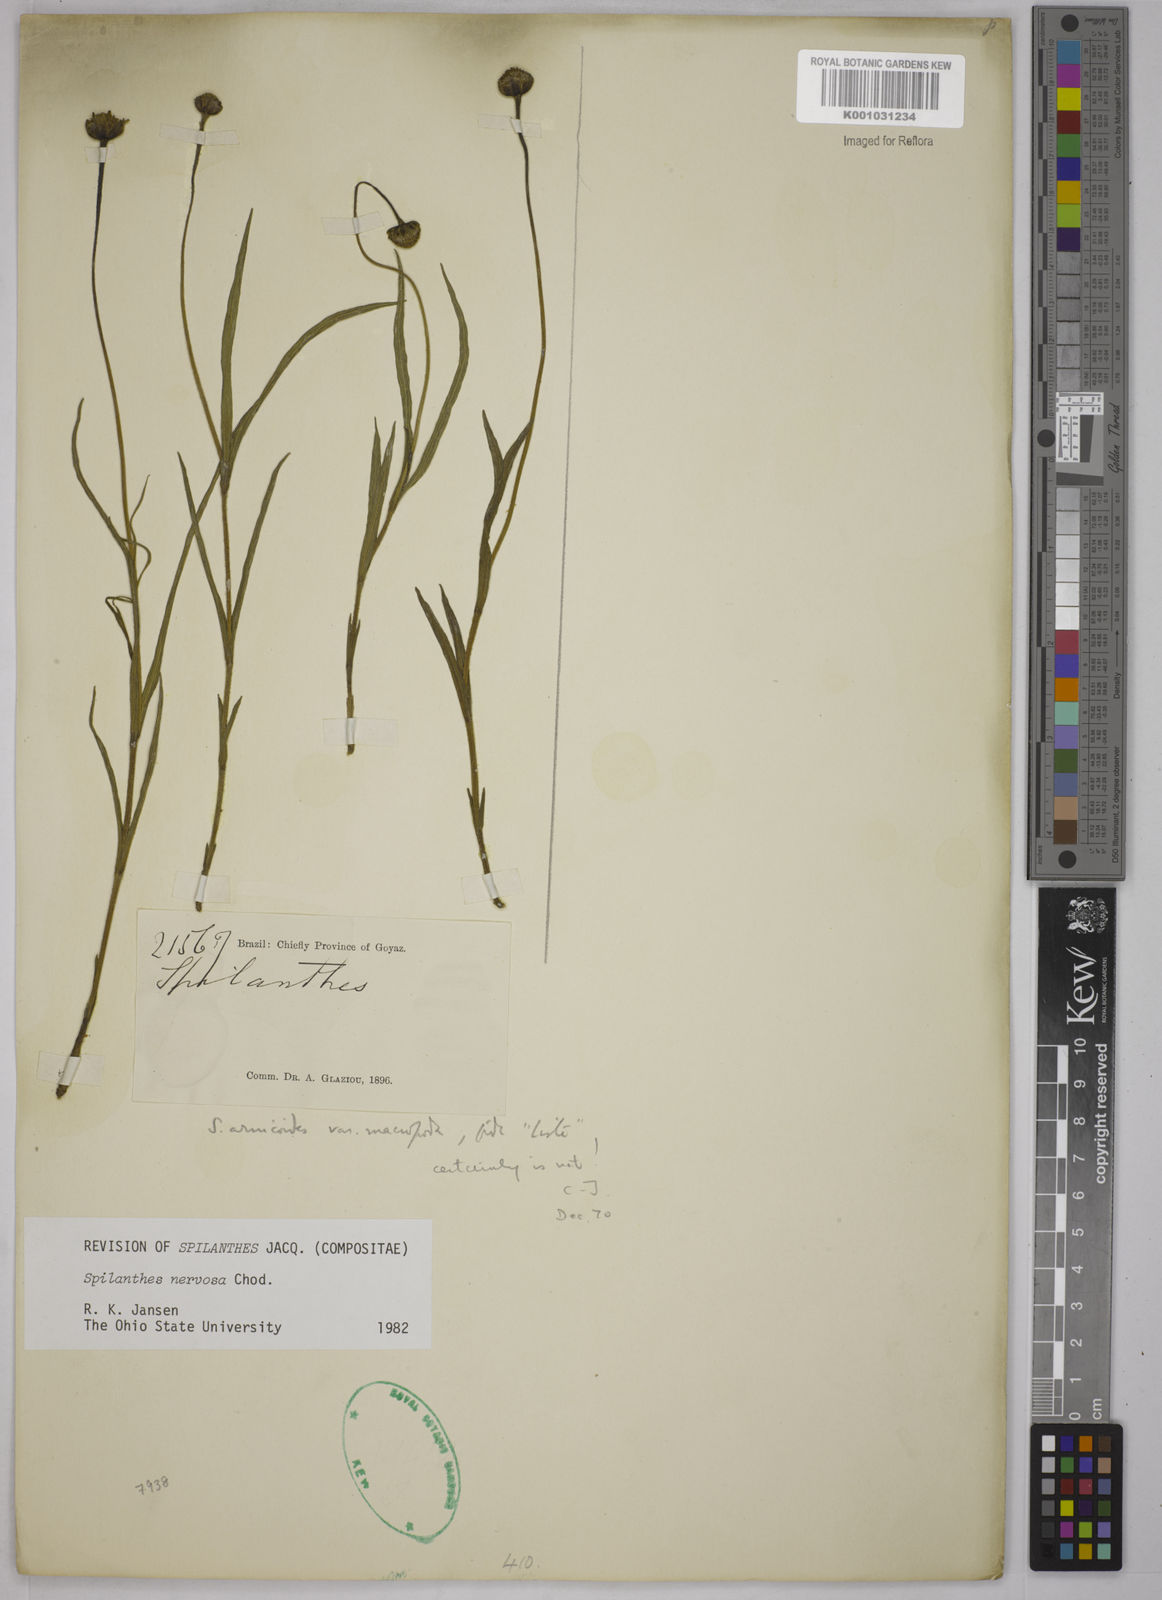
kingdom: Plantae
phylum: Tracheophyta
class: Magnoliopsida
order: Asterales
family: Asteraceae
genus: Spilanthes
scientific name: Spilanthes nervosa
